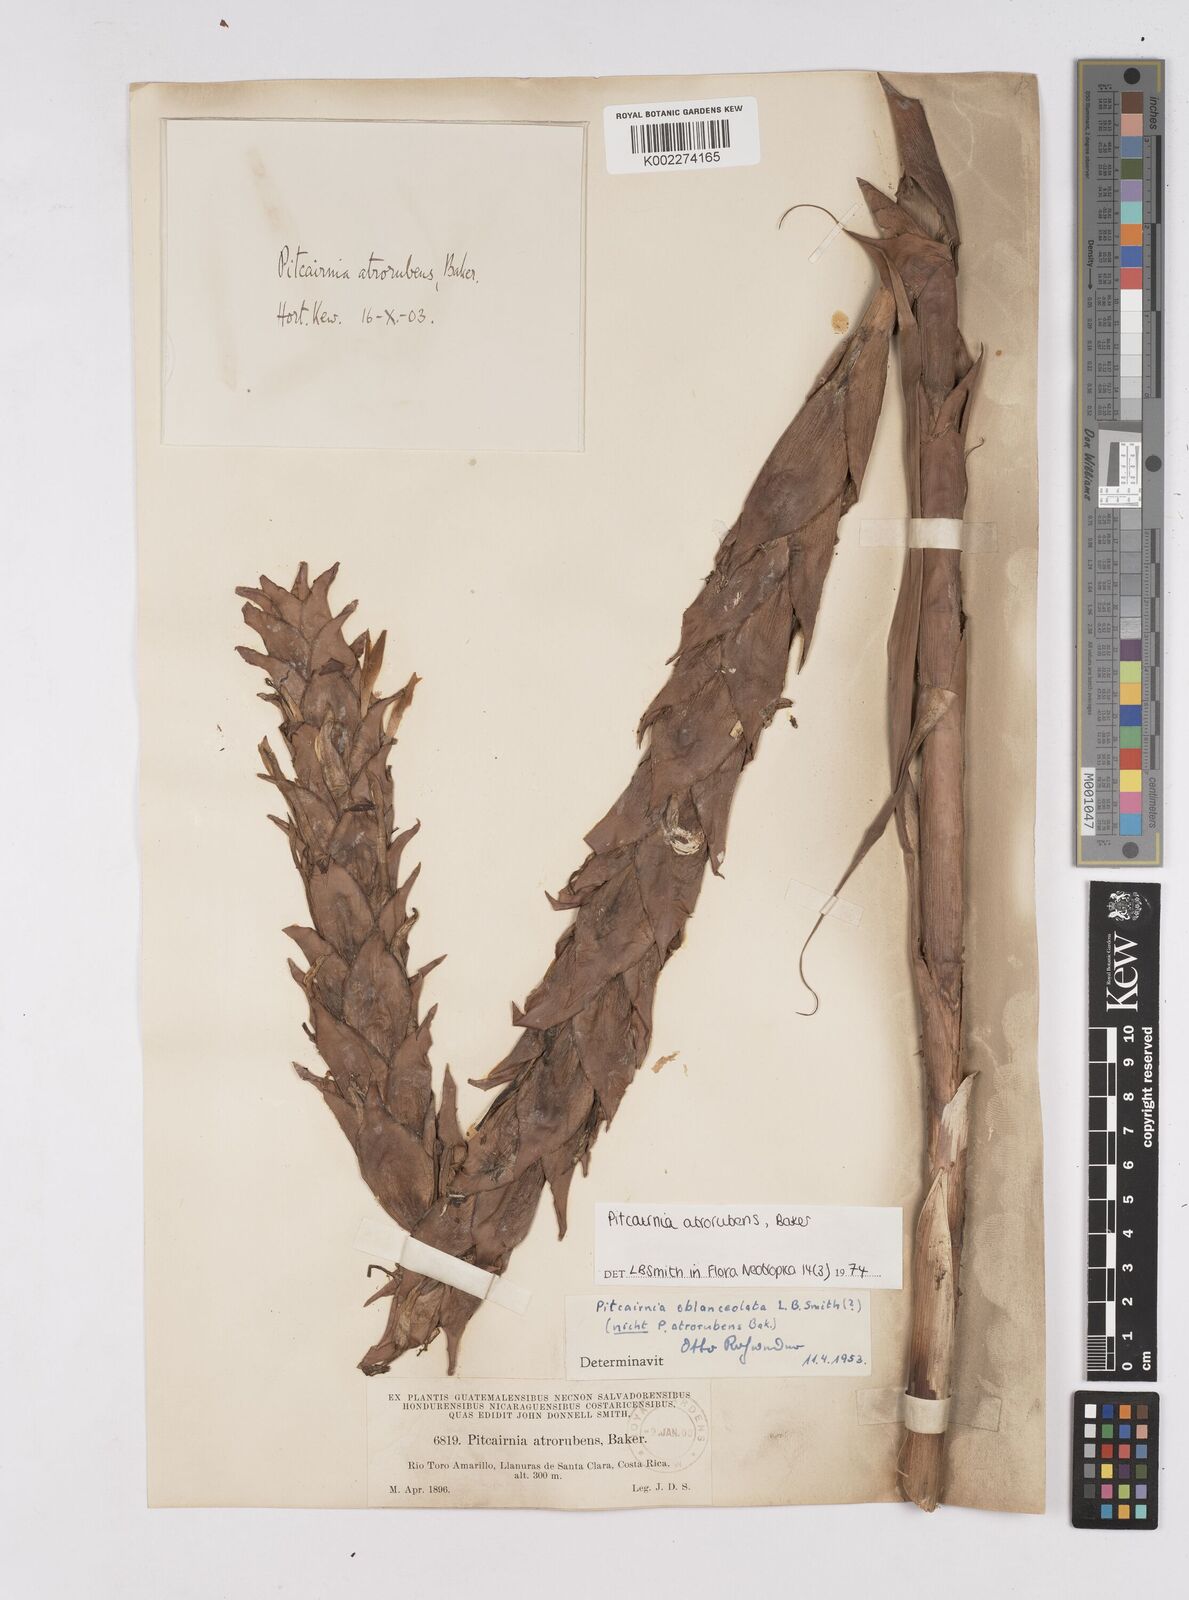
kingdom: Plantae
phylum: Tracheophyta
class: Liliopsida
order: Poales
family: Bromeliaceae
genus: Pitcairnia
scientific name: Pitcairnia atrorubens
